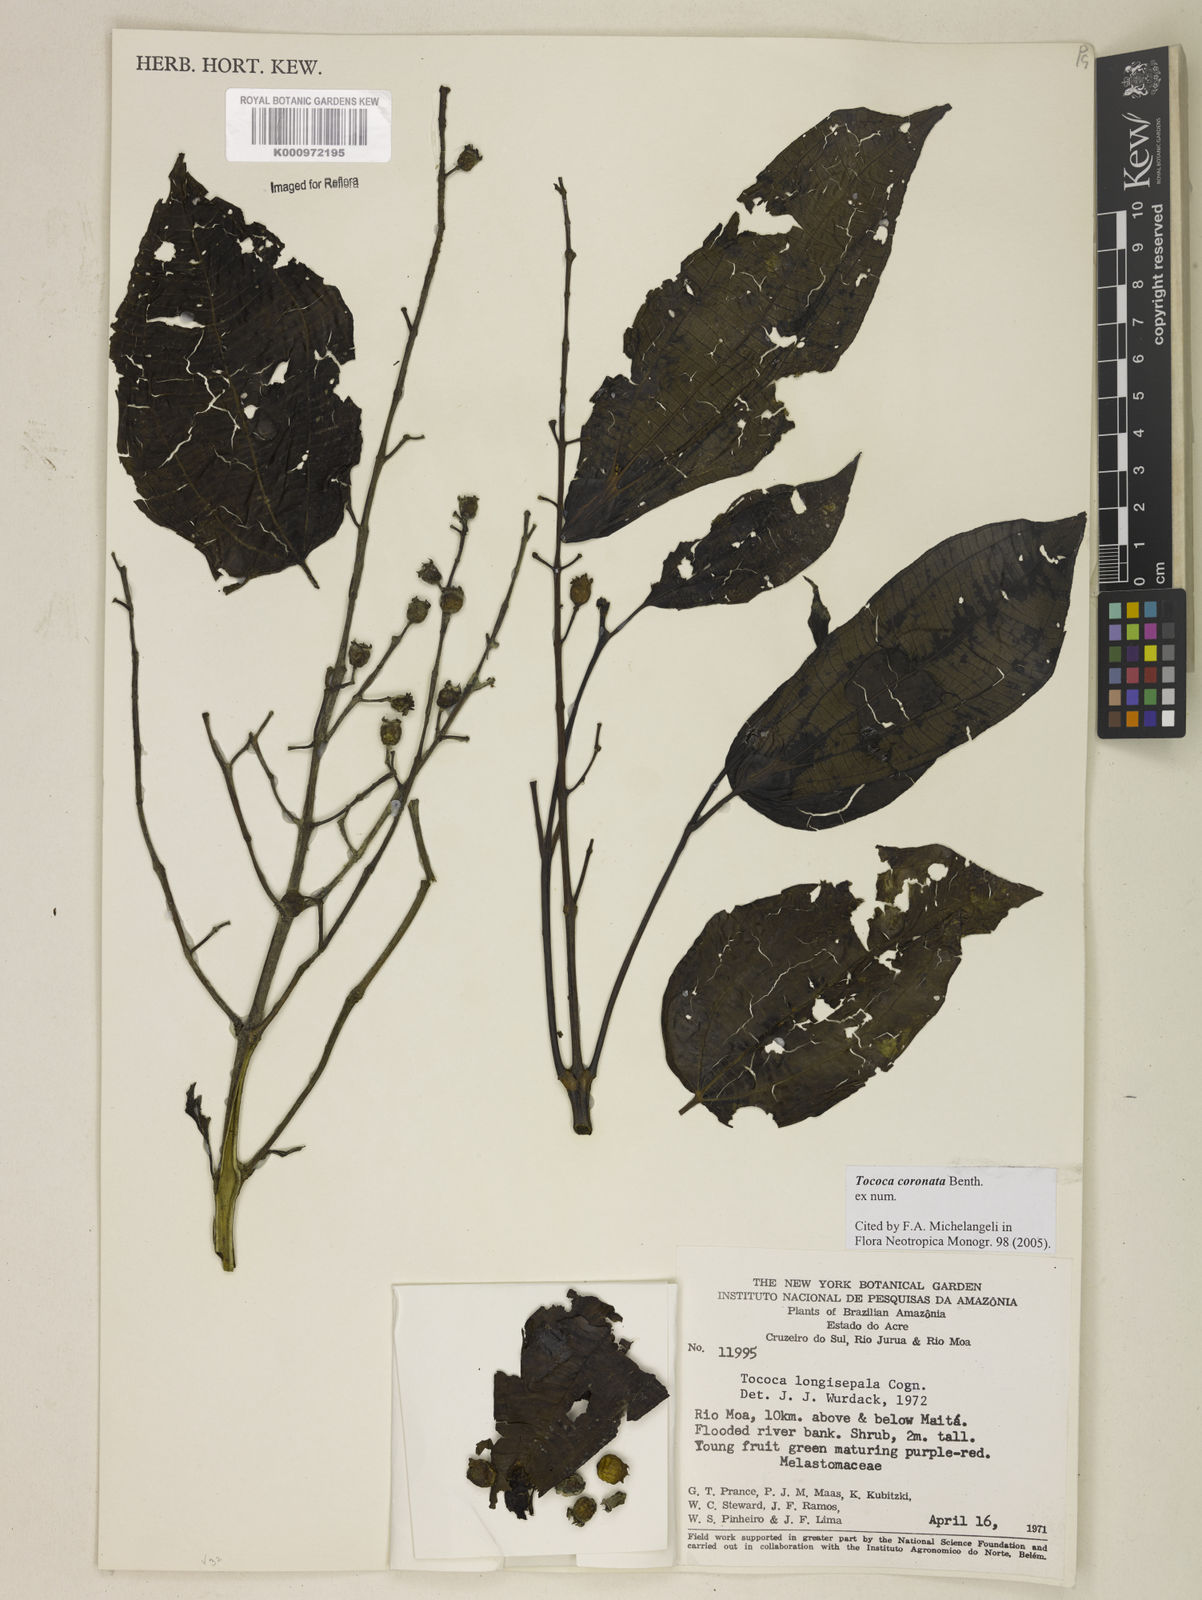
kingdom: Plantae
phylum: Tracheophyta
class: Magnoliopsida
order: Myrtales
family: Melastomataceae
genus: Miconia
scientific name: Miconia tococoronata
